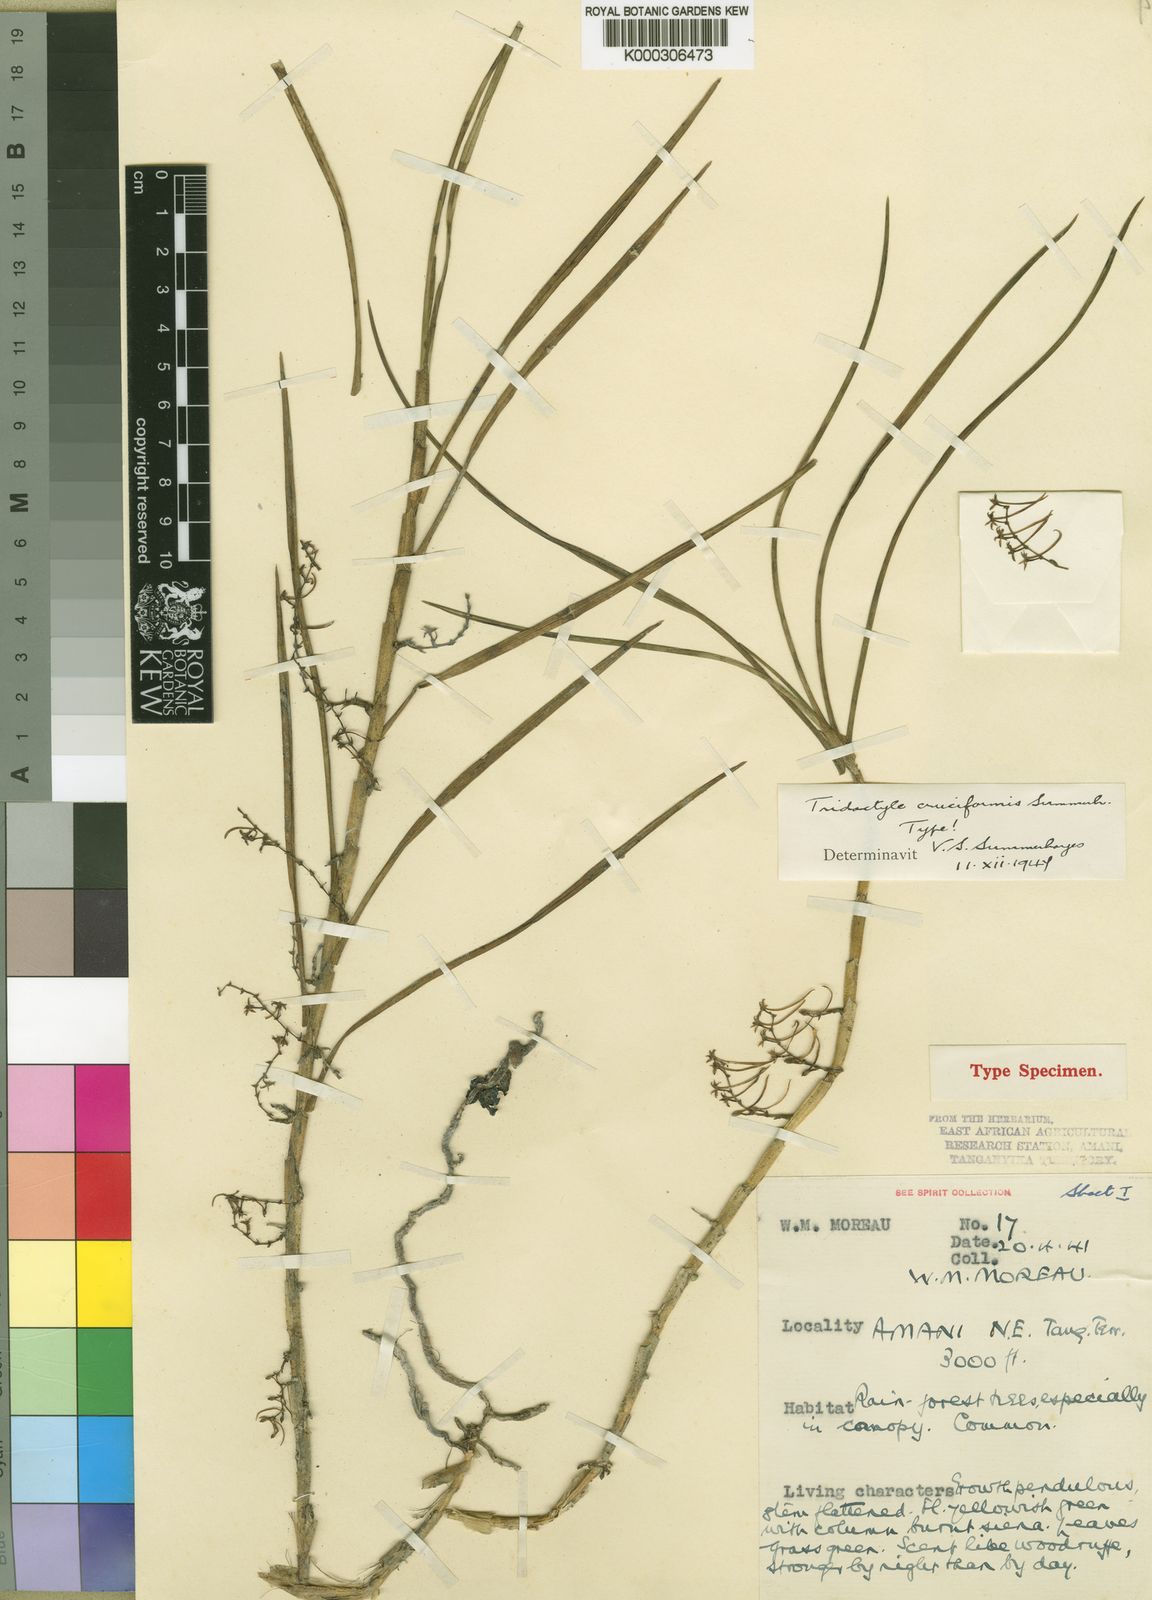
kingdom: Plantae
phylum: Tracheophyta
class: Liliopsida
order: Asparagales
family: Orchidaceae
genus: Tridactyle
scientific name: Tridactyle cruciformis
